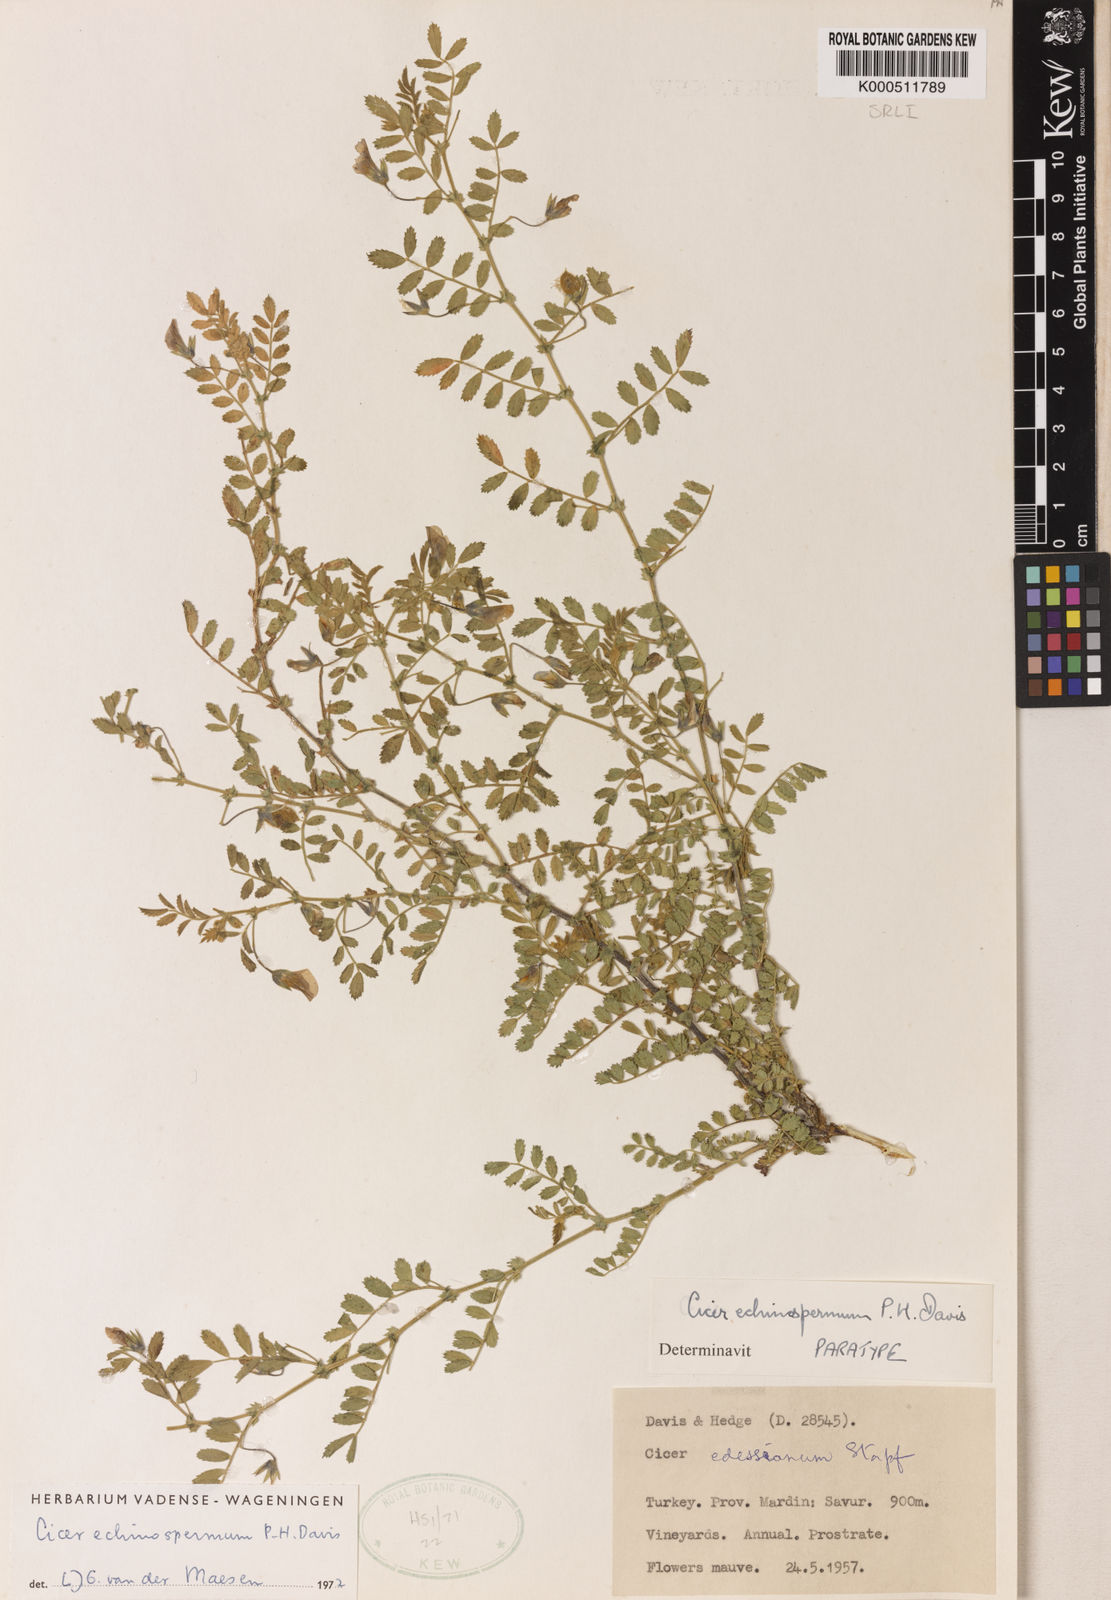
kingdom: Plantae
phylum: Tracheophyta
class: Magnoliopsida
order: Fabales
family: Fabaceae
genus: Cicer
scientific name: Cicer echinospermum
